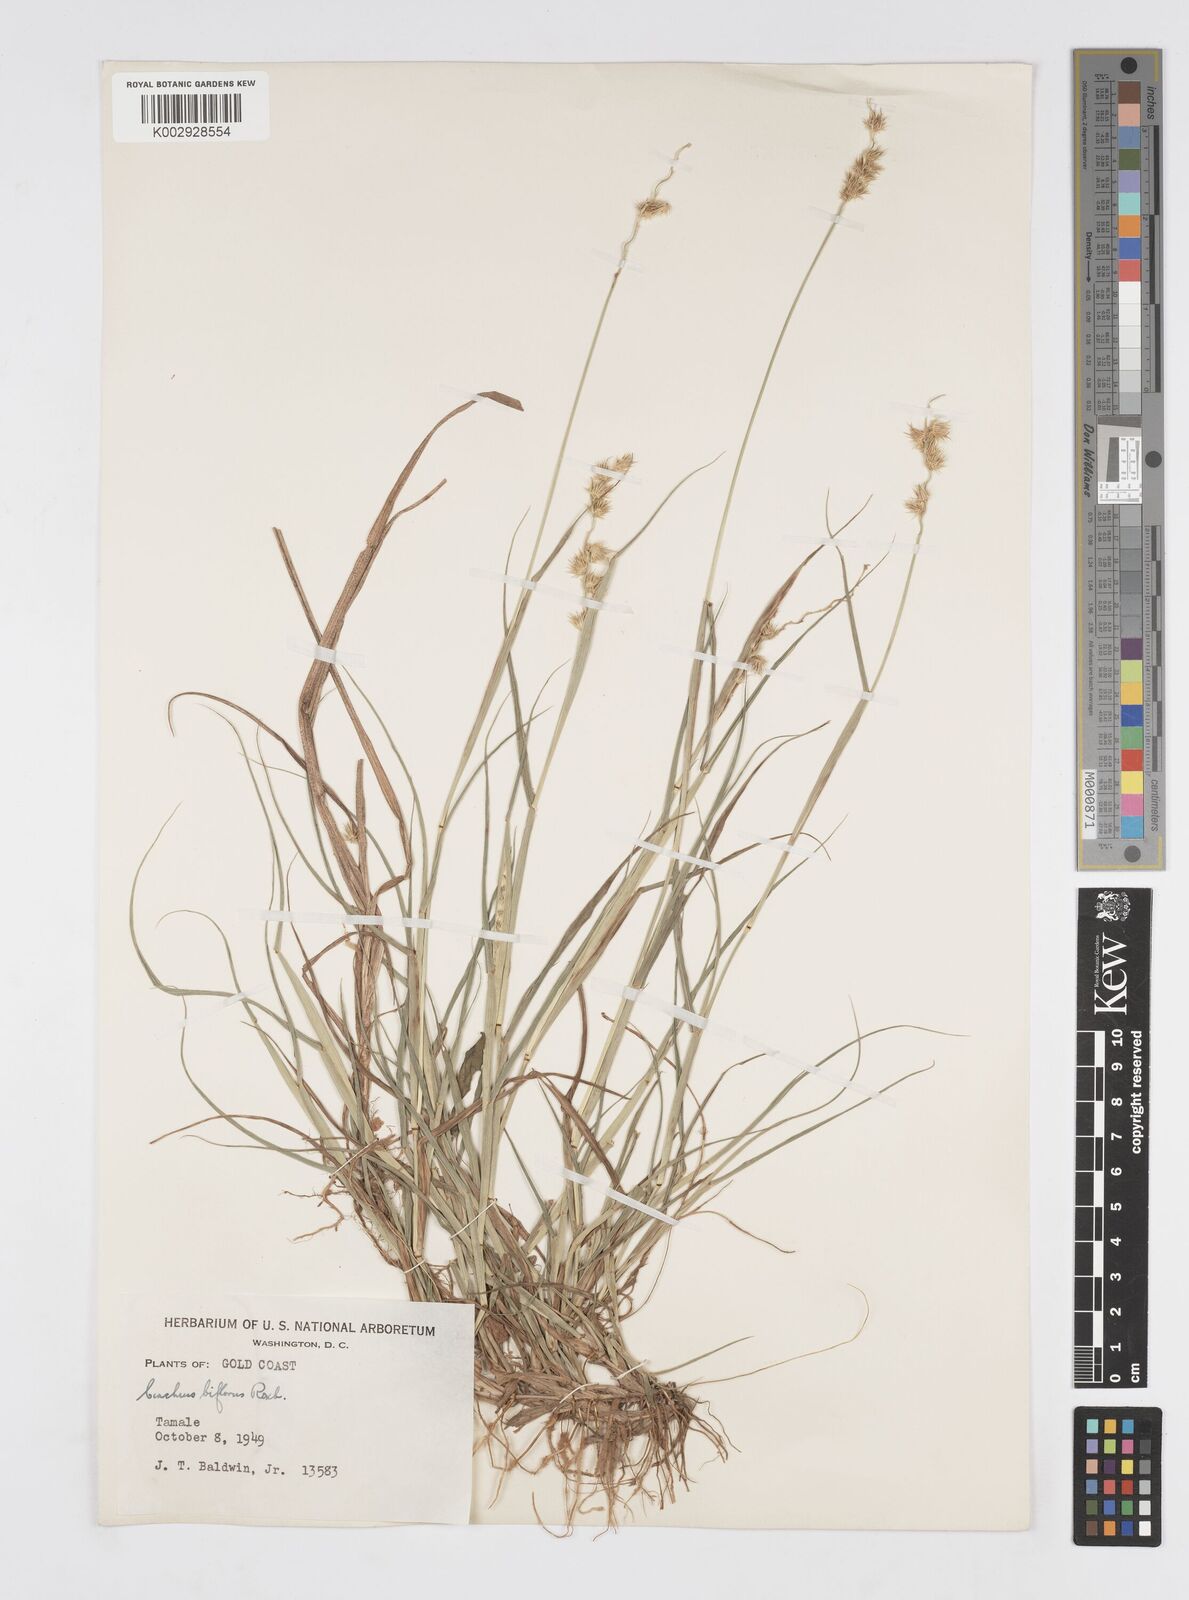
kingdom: Plantae
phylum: Tracheophyta
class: Liliopsida
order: Poales
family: Poaceae
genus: Cenchrus
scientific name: Cenchrus biflorus
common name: Indian sandbur
